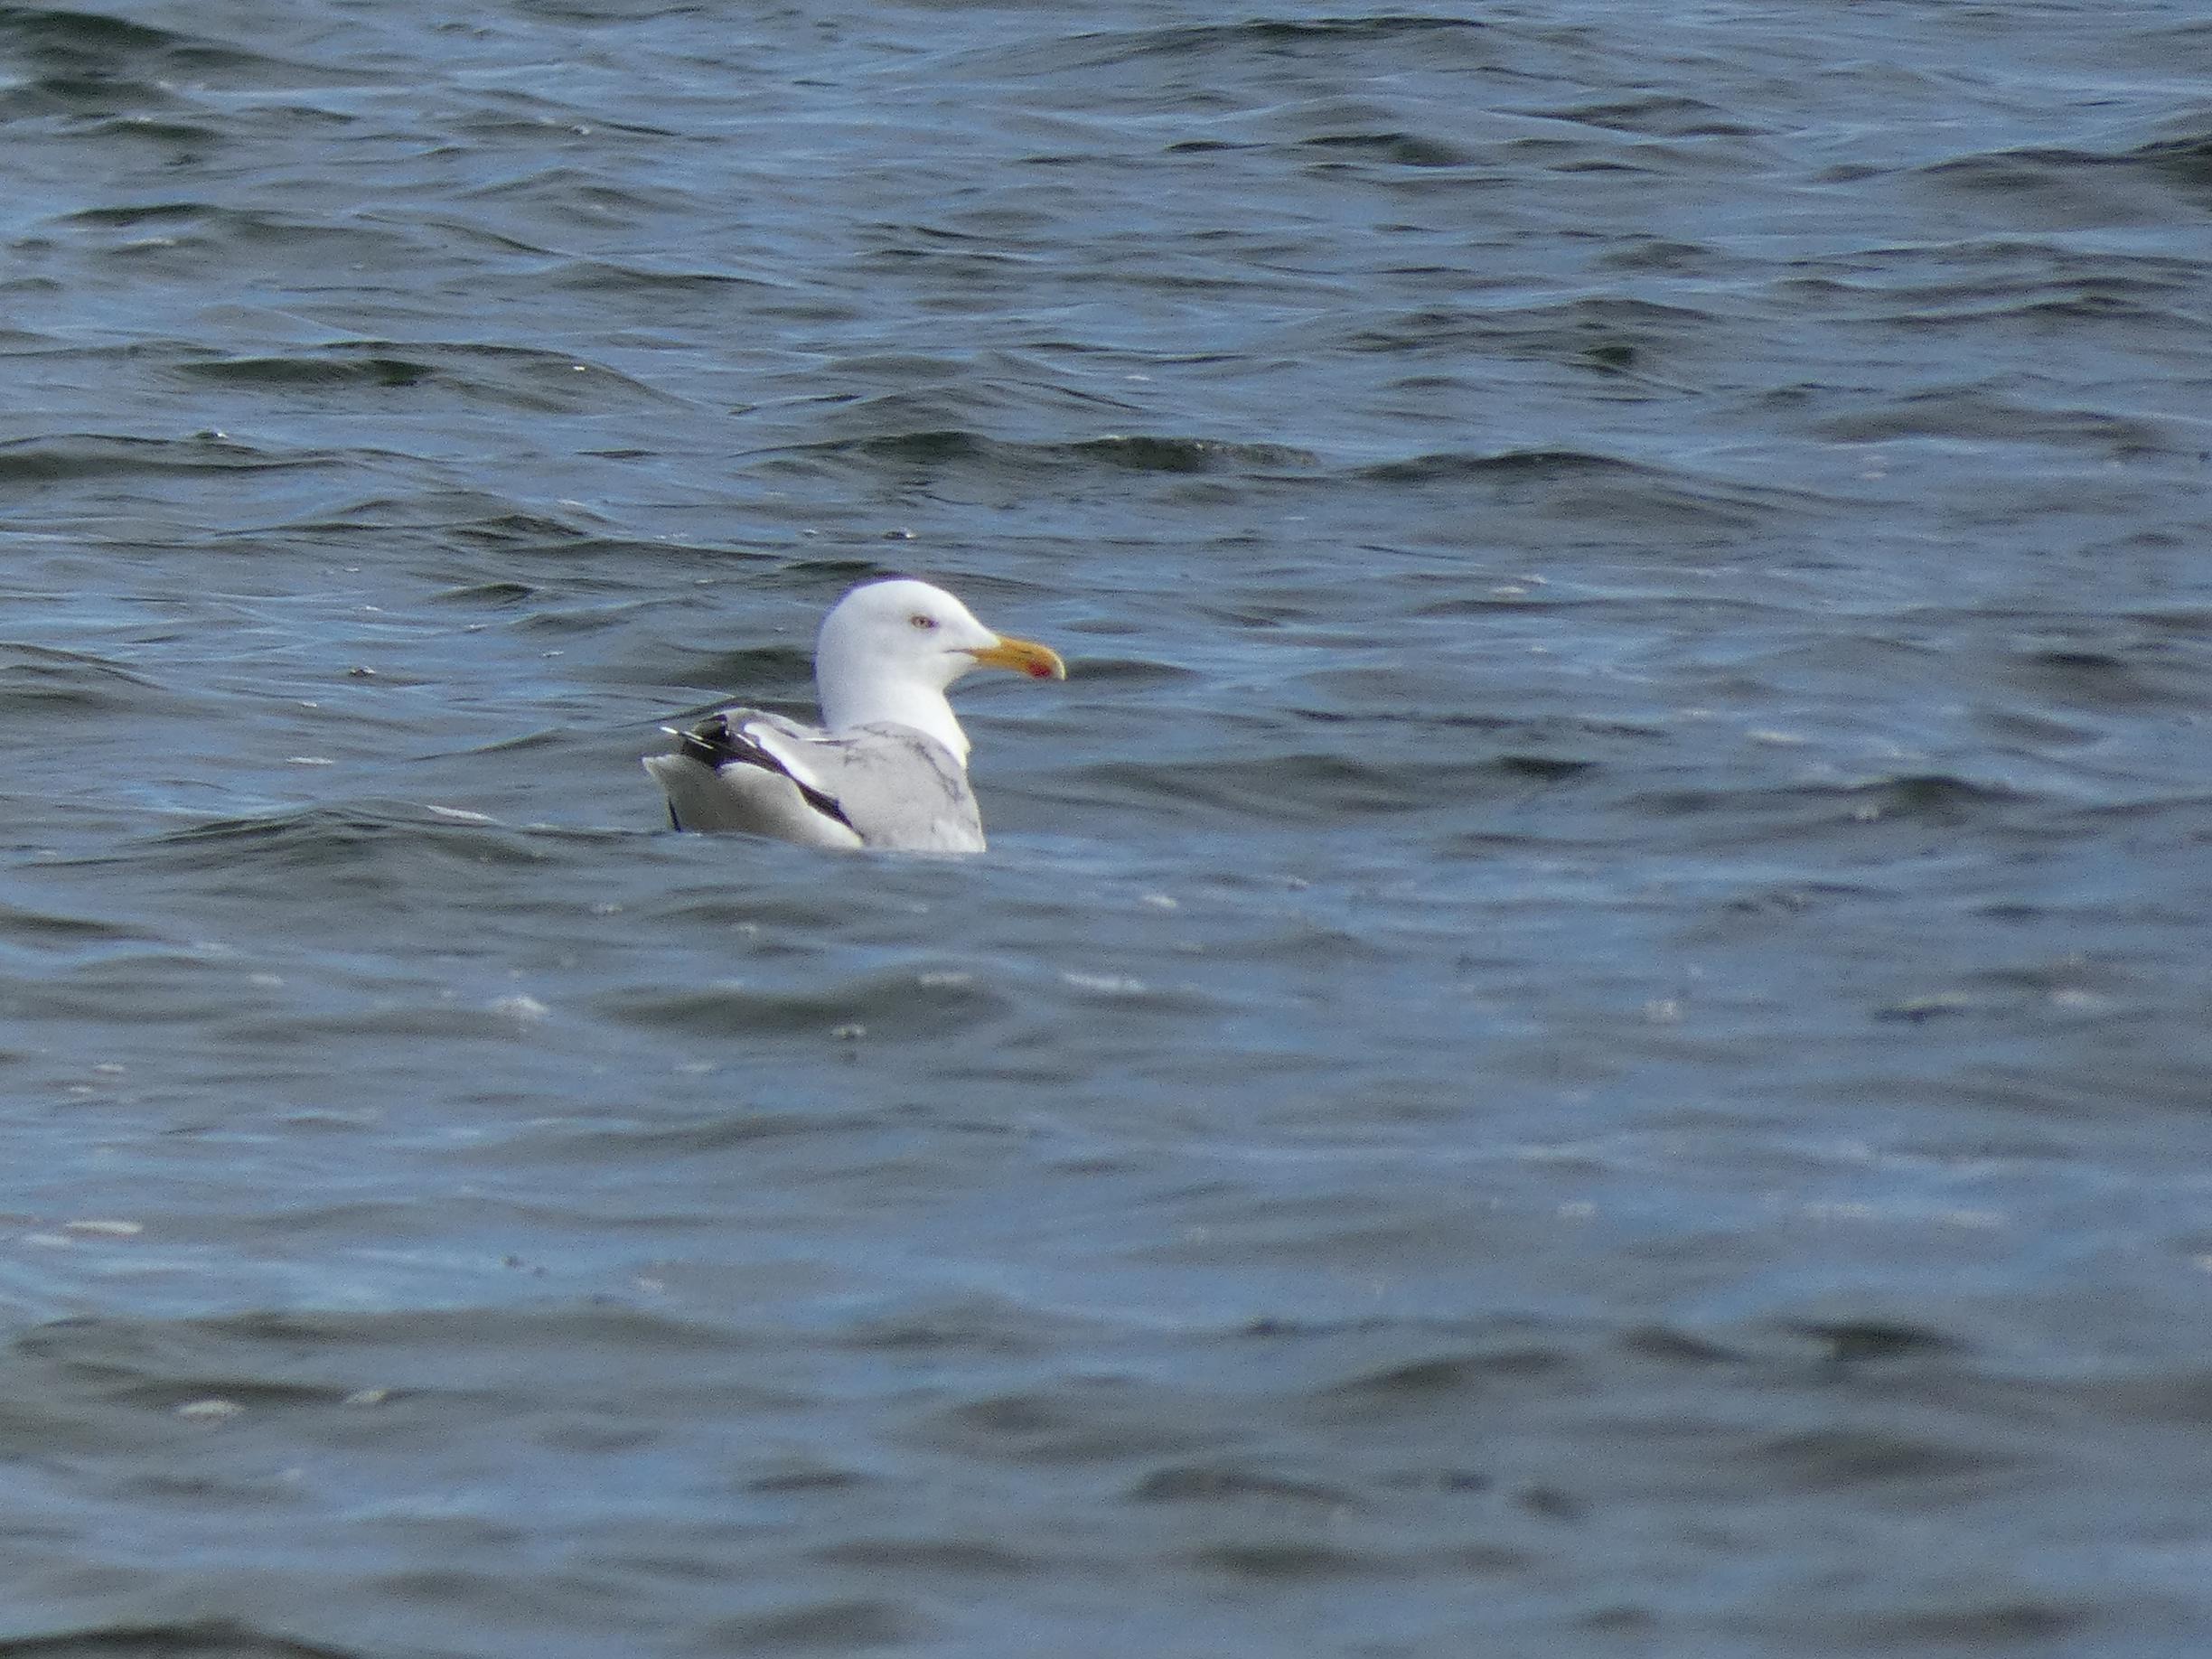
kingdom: Animalia
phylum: Chordata
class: Aves
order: Charadriiformes
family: Laridae
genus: Larus
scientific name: Larus argentatus
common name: Sølvmåge
